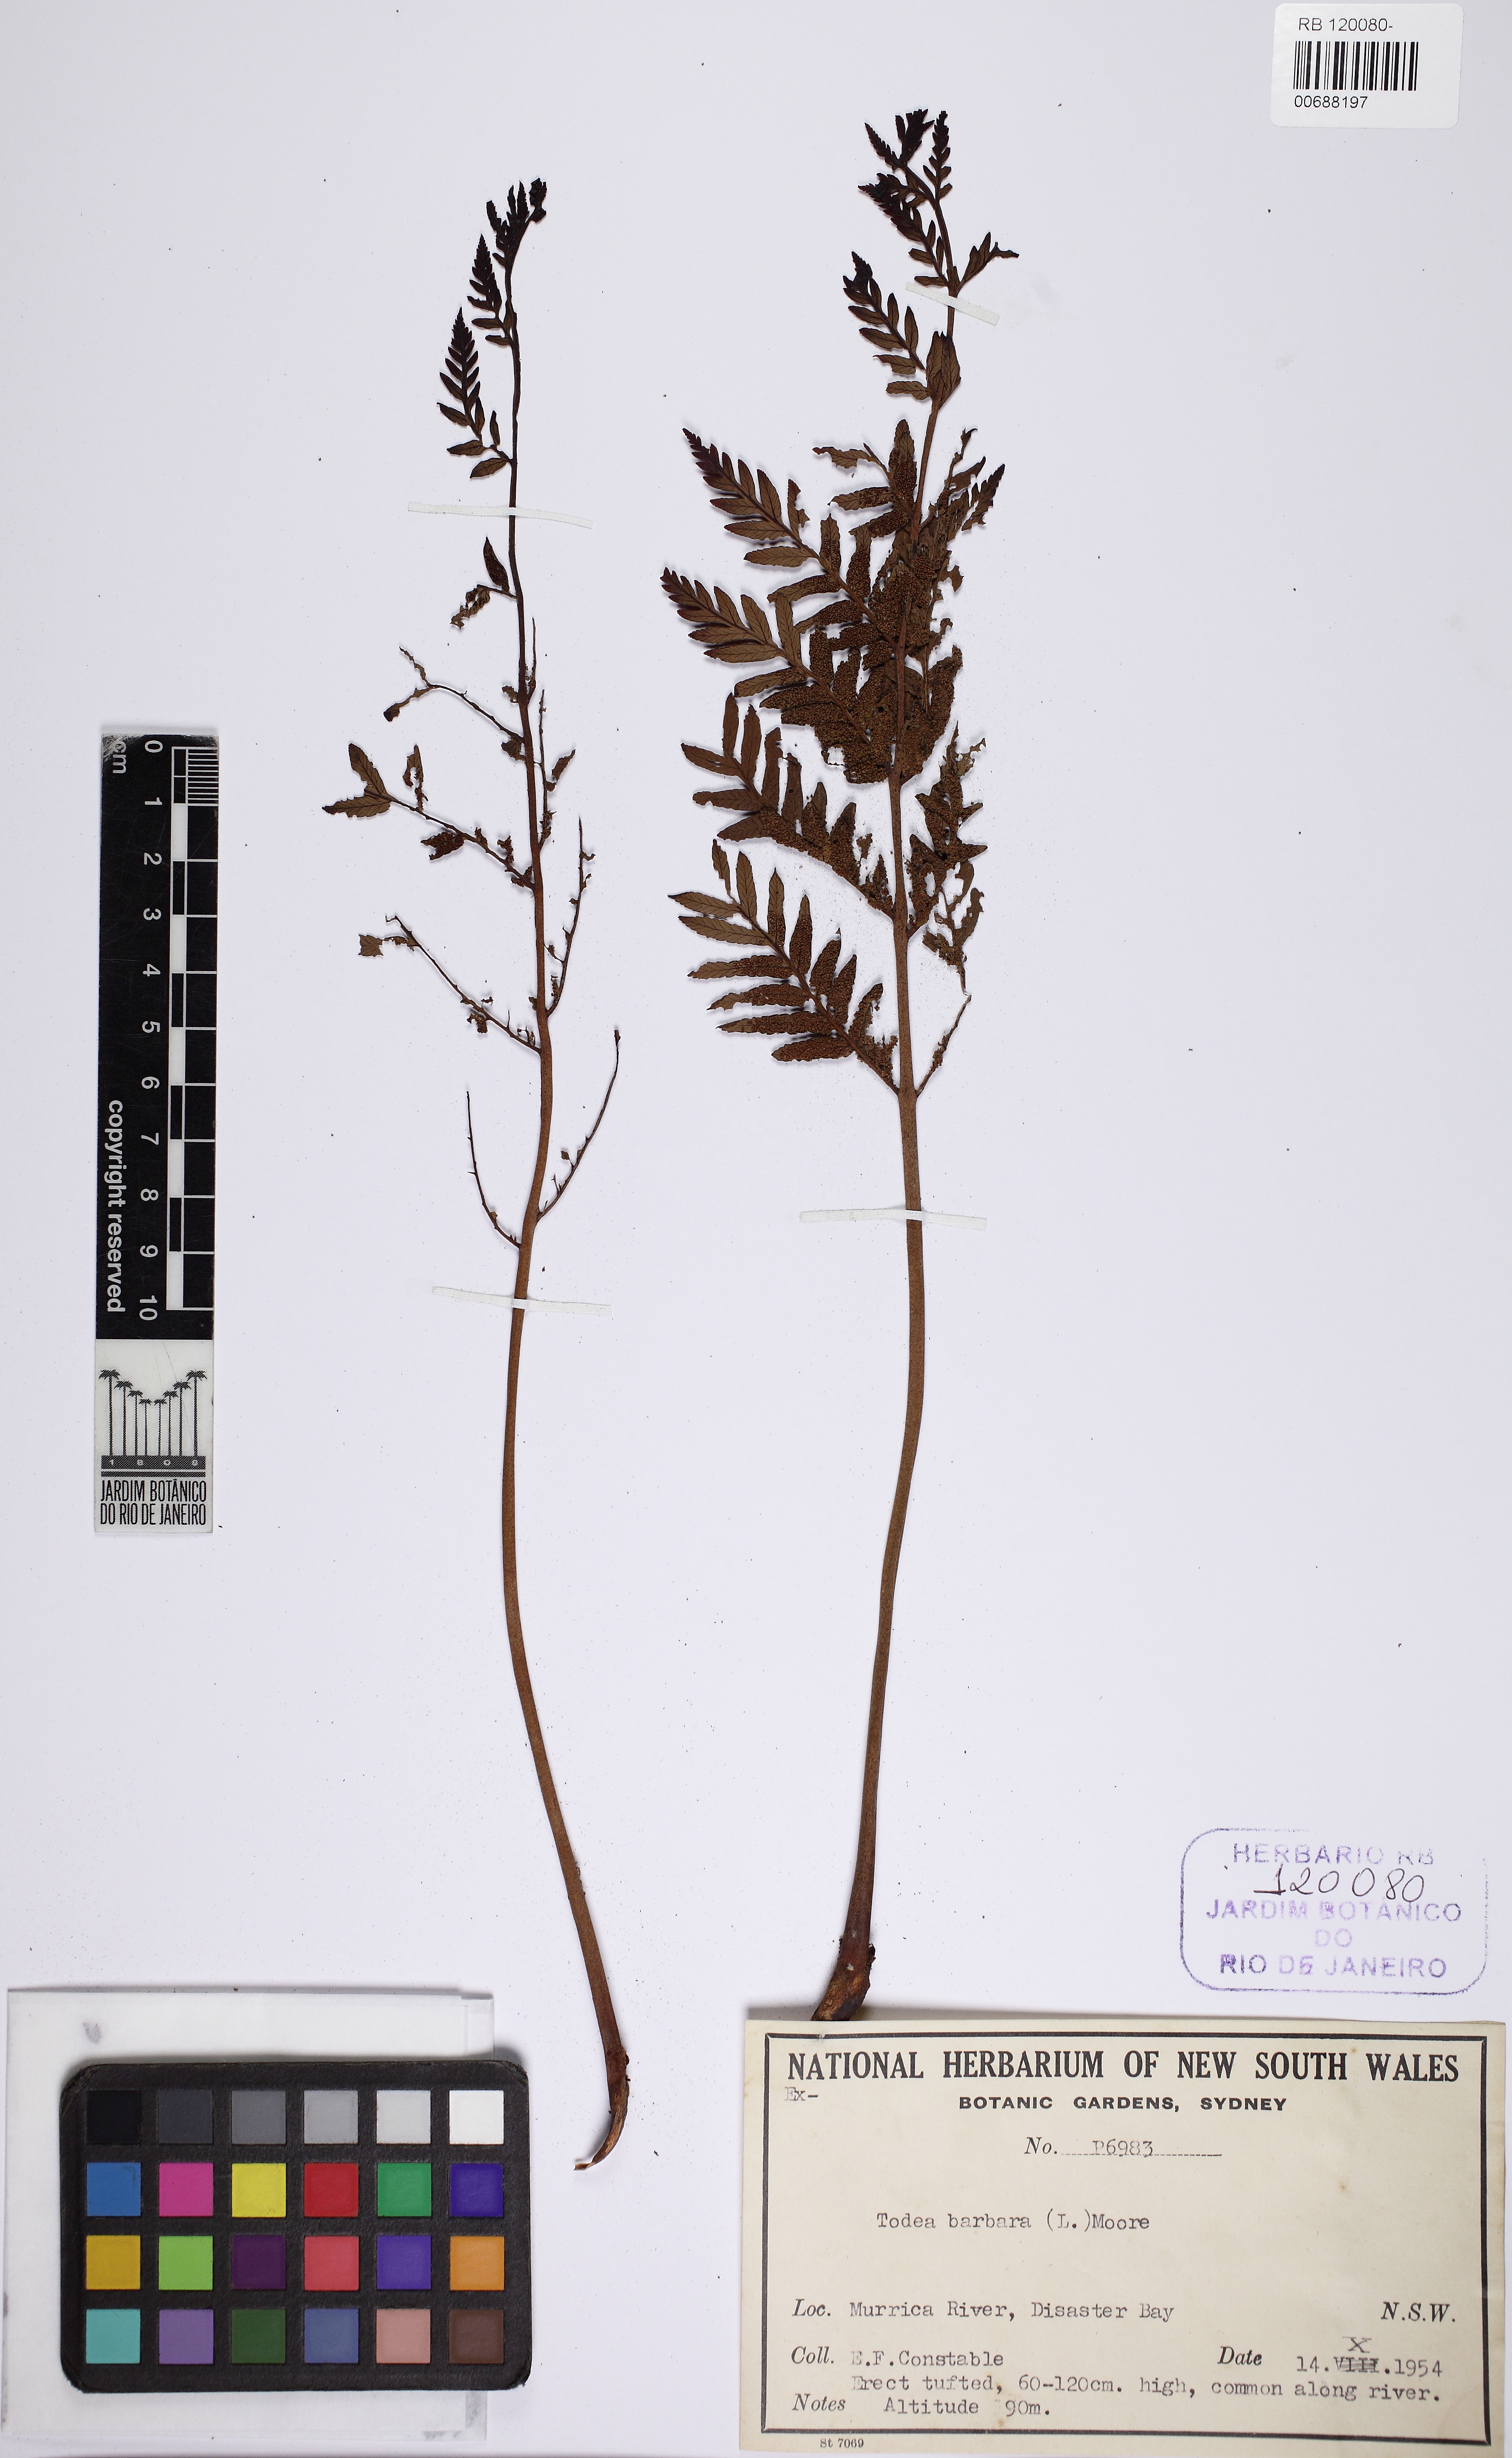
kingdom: Plantae
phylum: Tracheophyta
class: Polypodiopsida
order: Osmundales
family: Osmundaceae
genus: Todea
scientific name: Todea barbara
